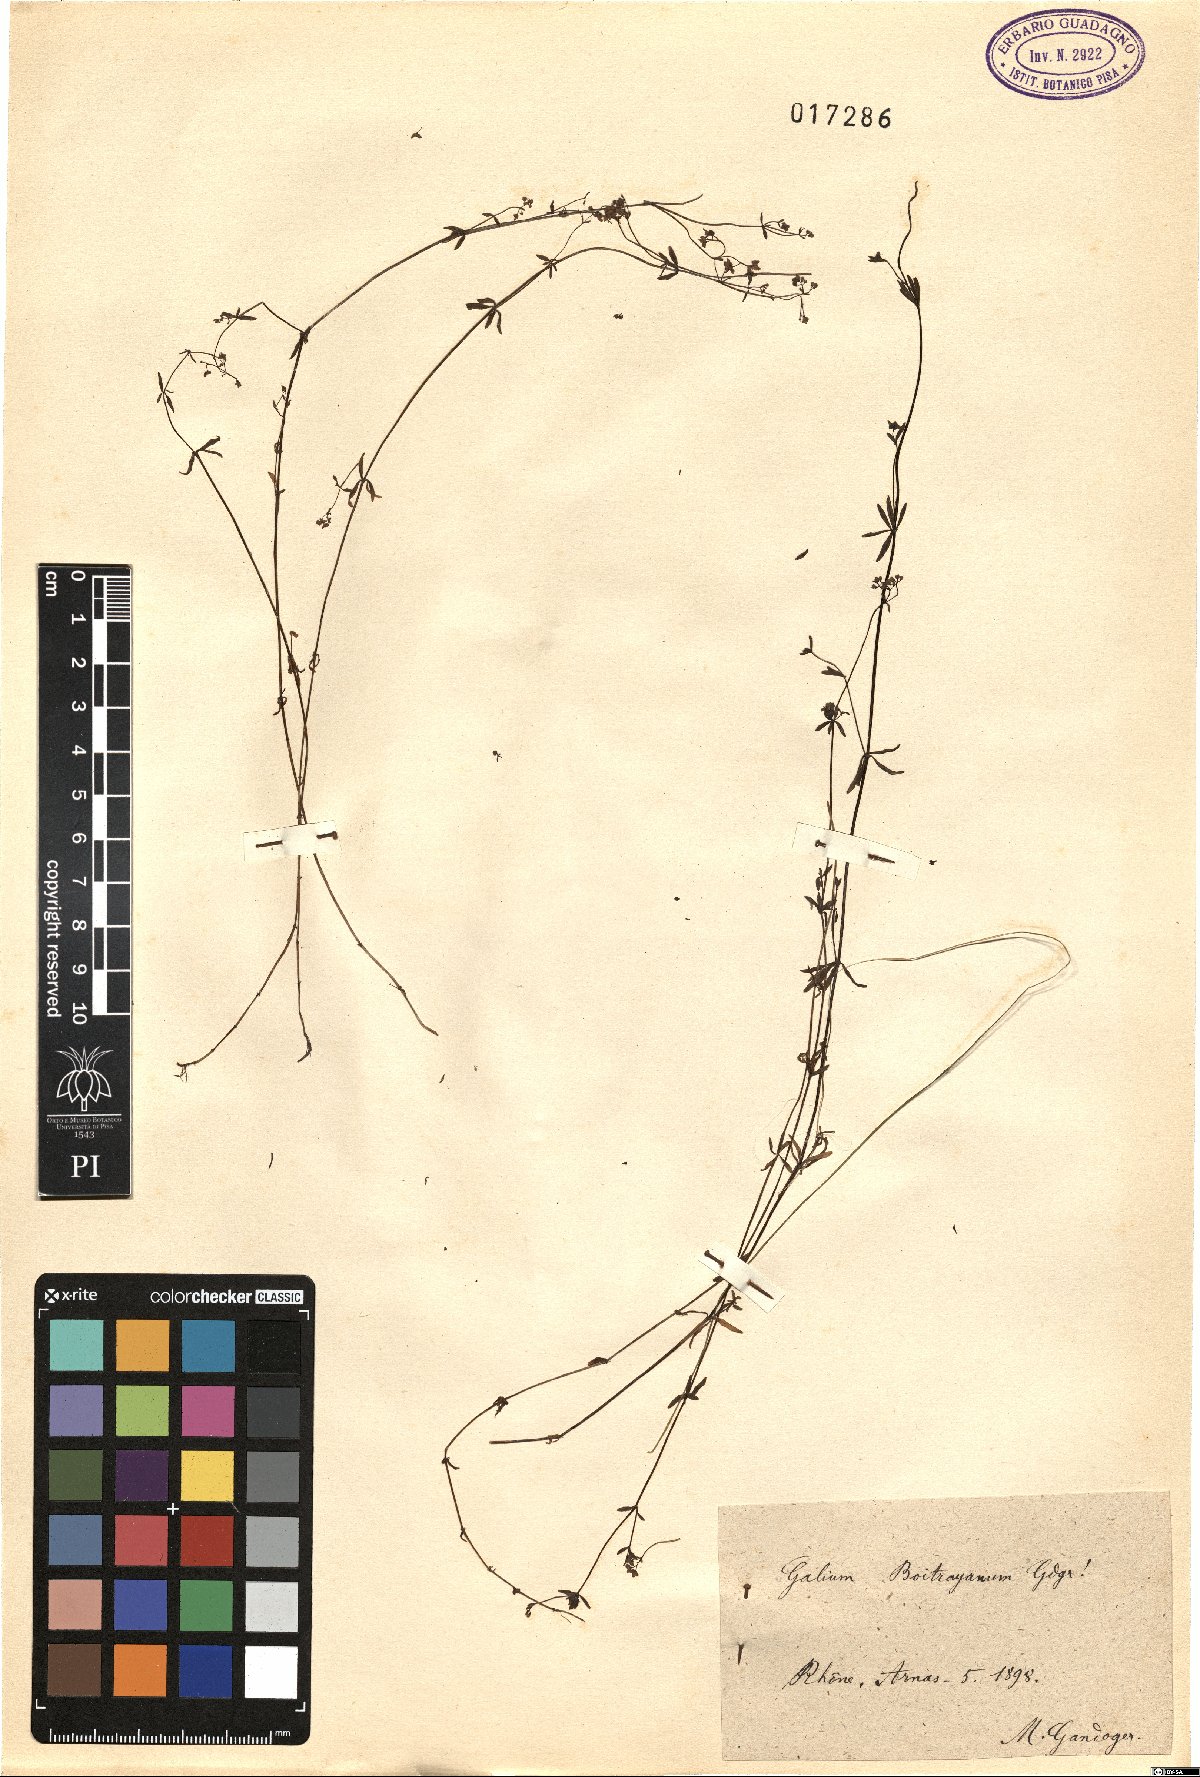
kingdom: Plantae
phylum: Tracheophyta
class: Magnoliopsida
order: Gentianales
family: Rubiaceae
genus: Galium
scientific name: Galium
